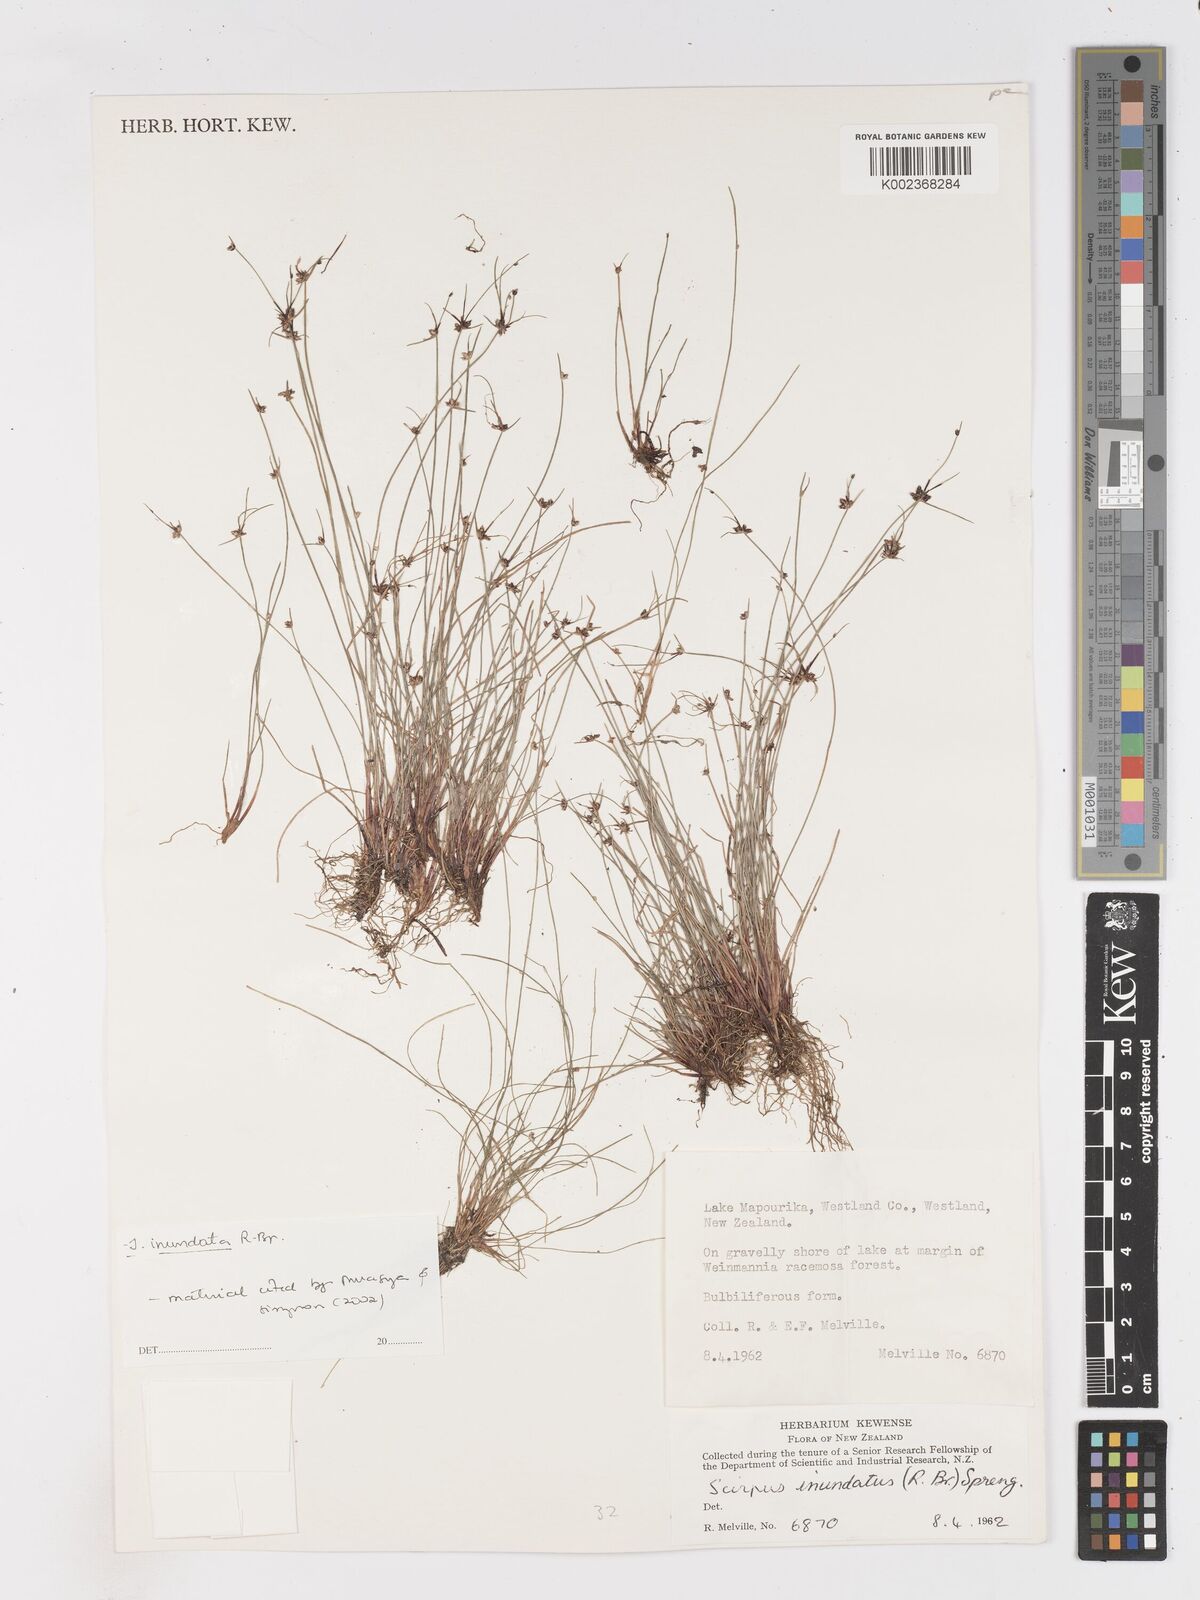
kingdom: Plantae
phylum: Tracheophyta
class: Liliopsida
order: Poales
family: Cyperaceae
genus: Isolepis
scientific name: Isolepis inundata
